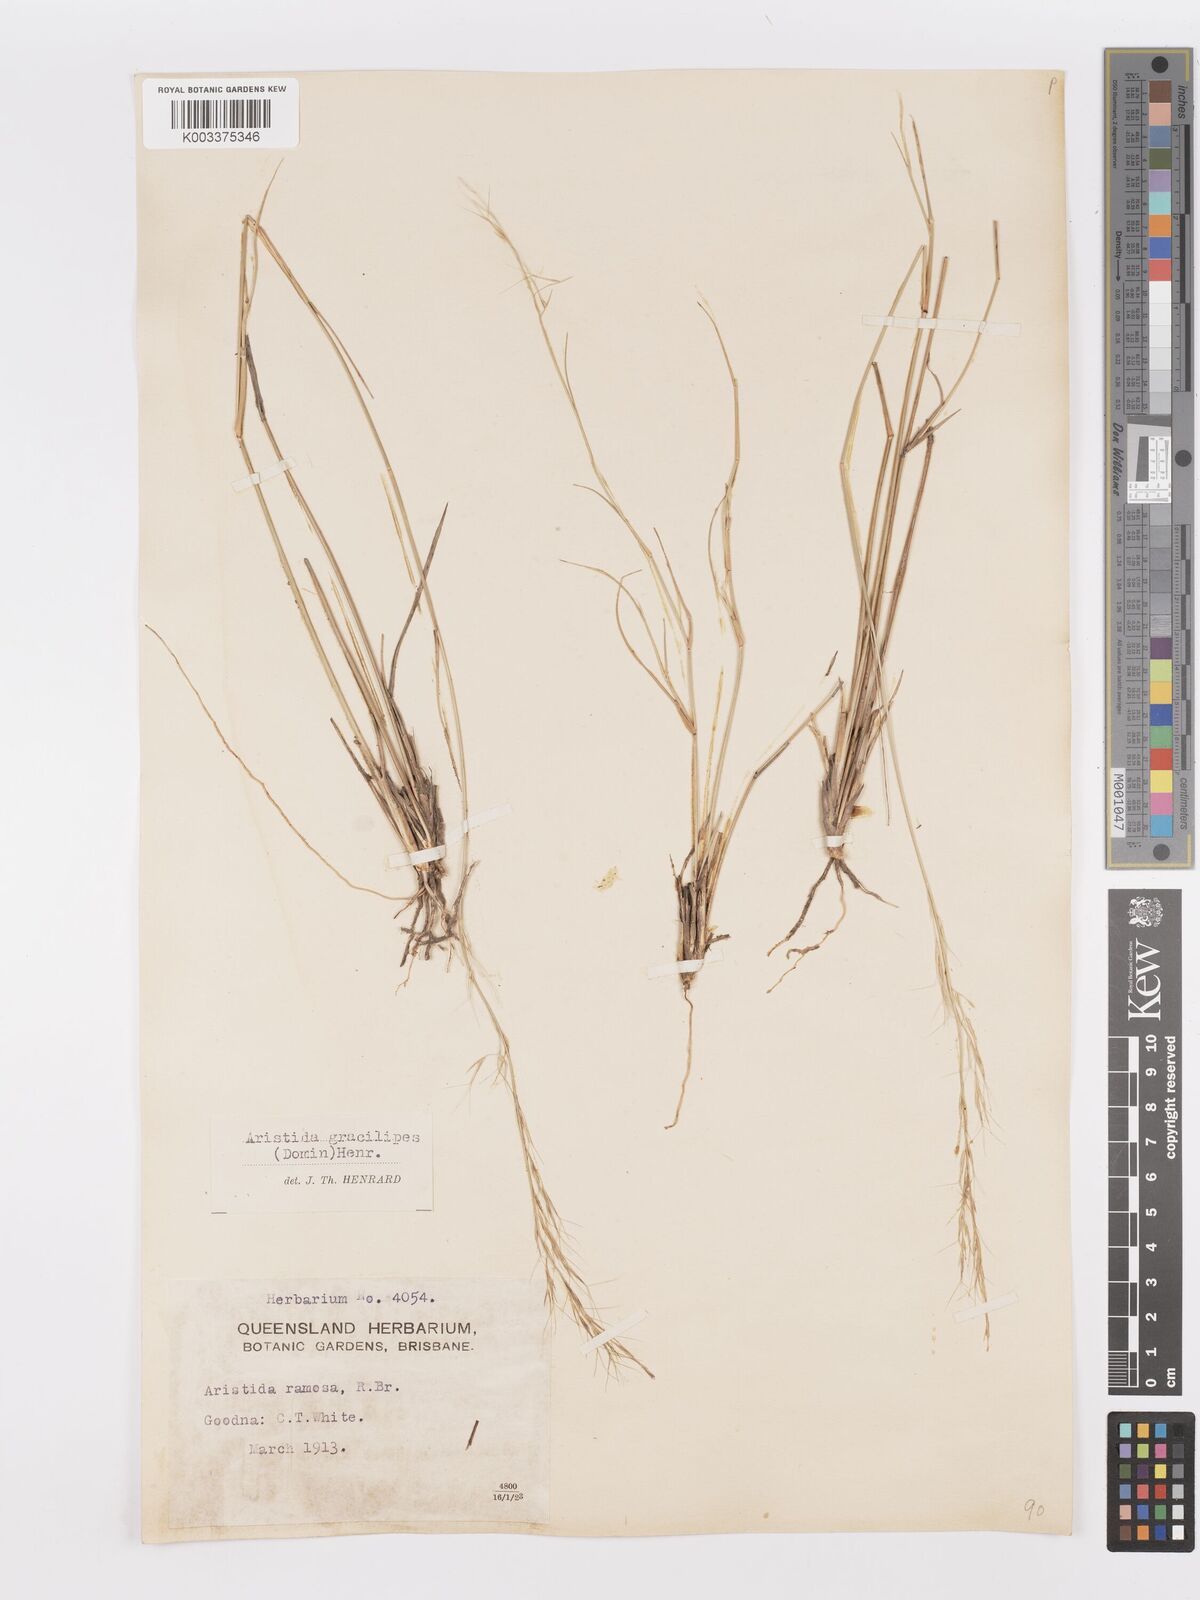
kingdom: Plantae
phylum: Tracheophyta
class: Liliopsida
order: Poales
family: Poaceae
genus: Aristida
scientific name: Aristida gracilipes
